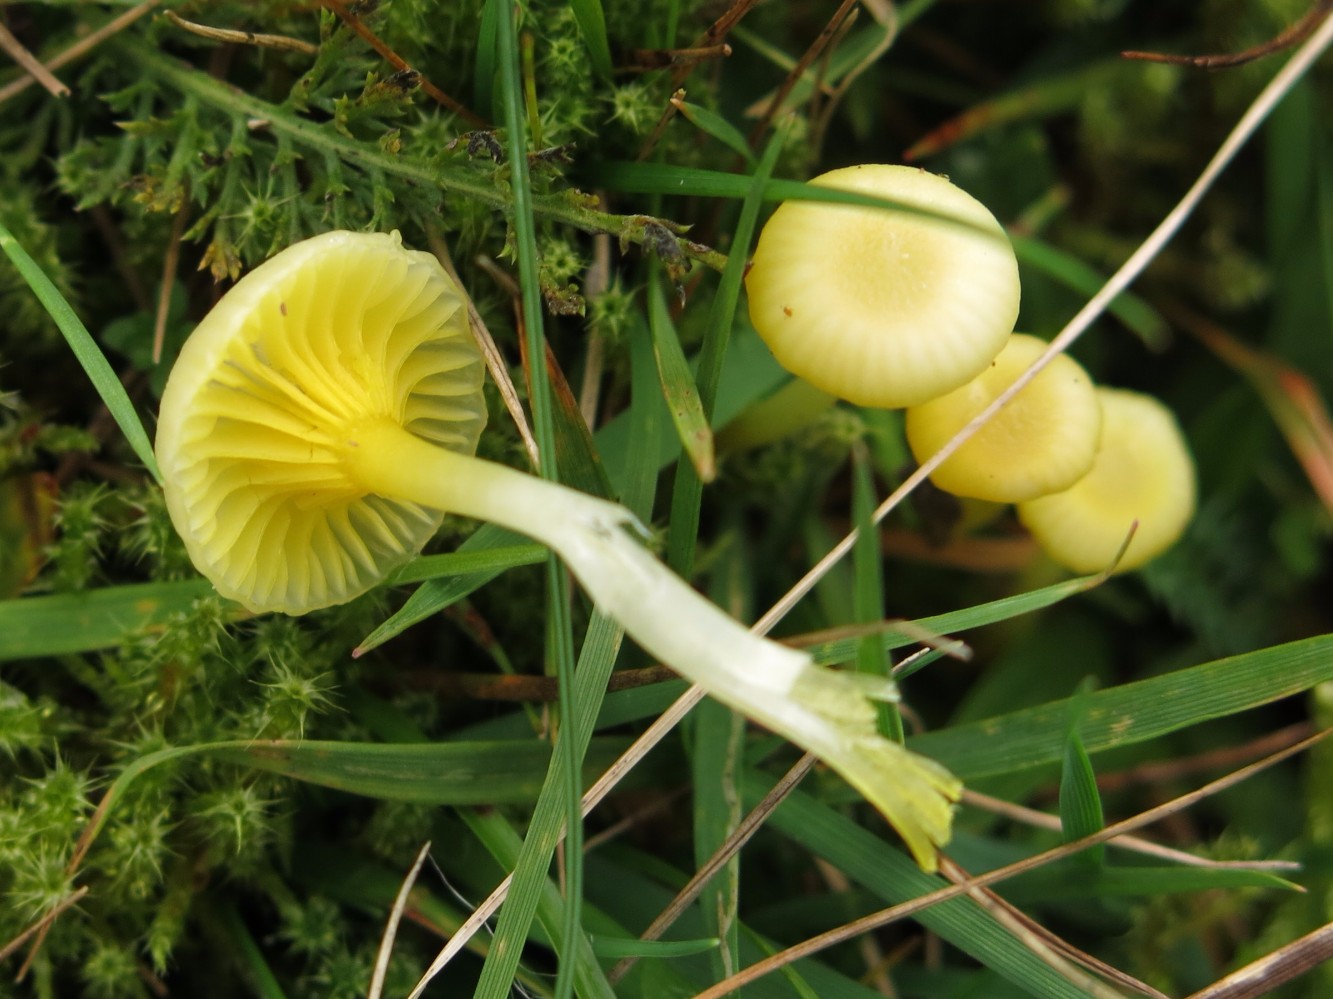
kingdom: Fungi
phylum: Basidiomycota
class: Agaricomycetes
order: Agaricales
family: Hygrophoraceae
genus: Gloioxanthomyces
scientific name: Gloioxanthomyces vitellinus
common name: kromgul vokshat
